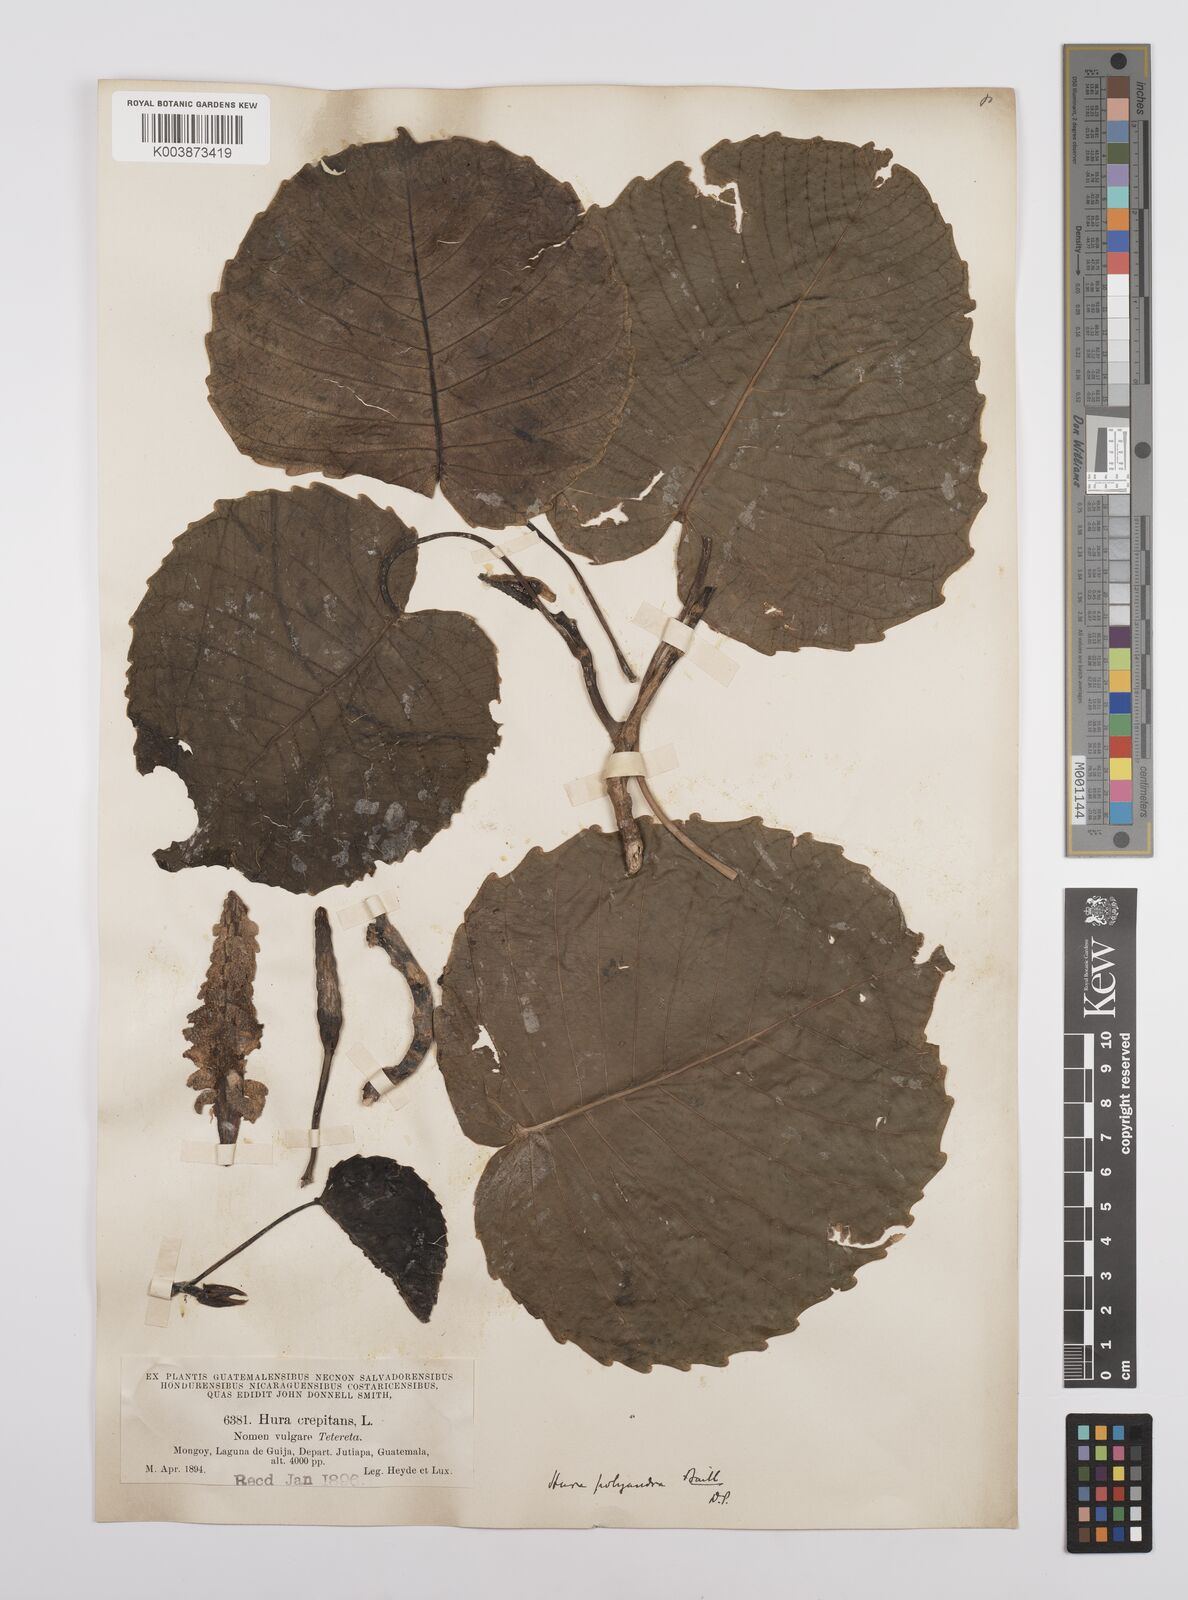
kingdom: Plantae
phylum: Tracheophyta
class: Magnoliopsida
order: Malpighiales
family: Euphorbiaceae
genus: Hura
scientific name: Hura polyandra
